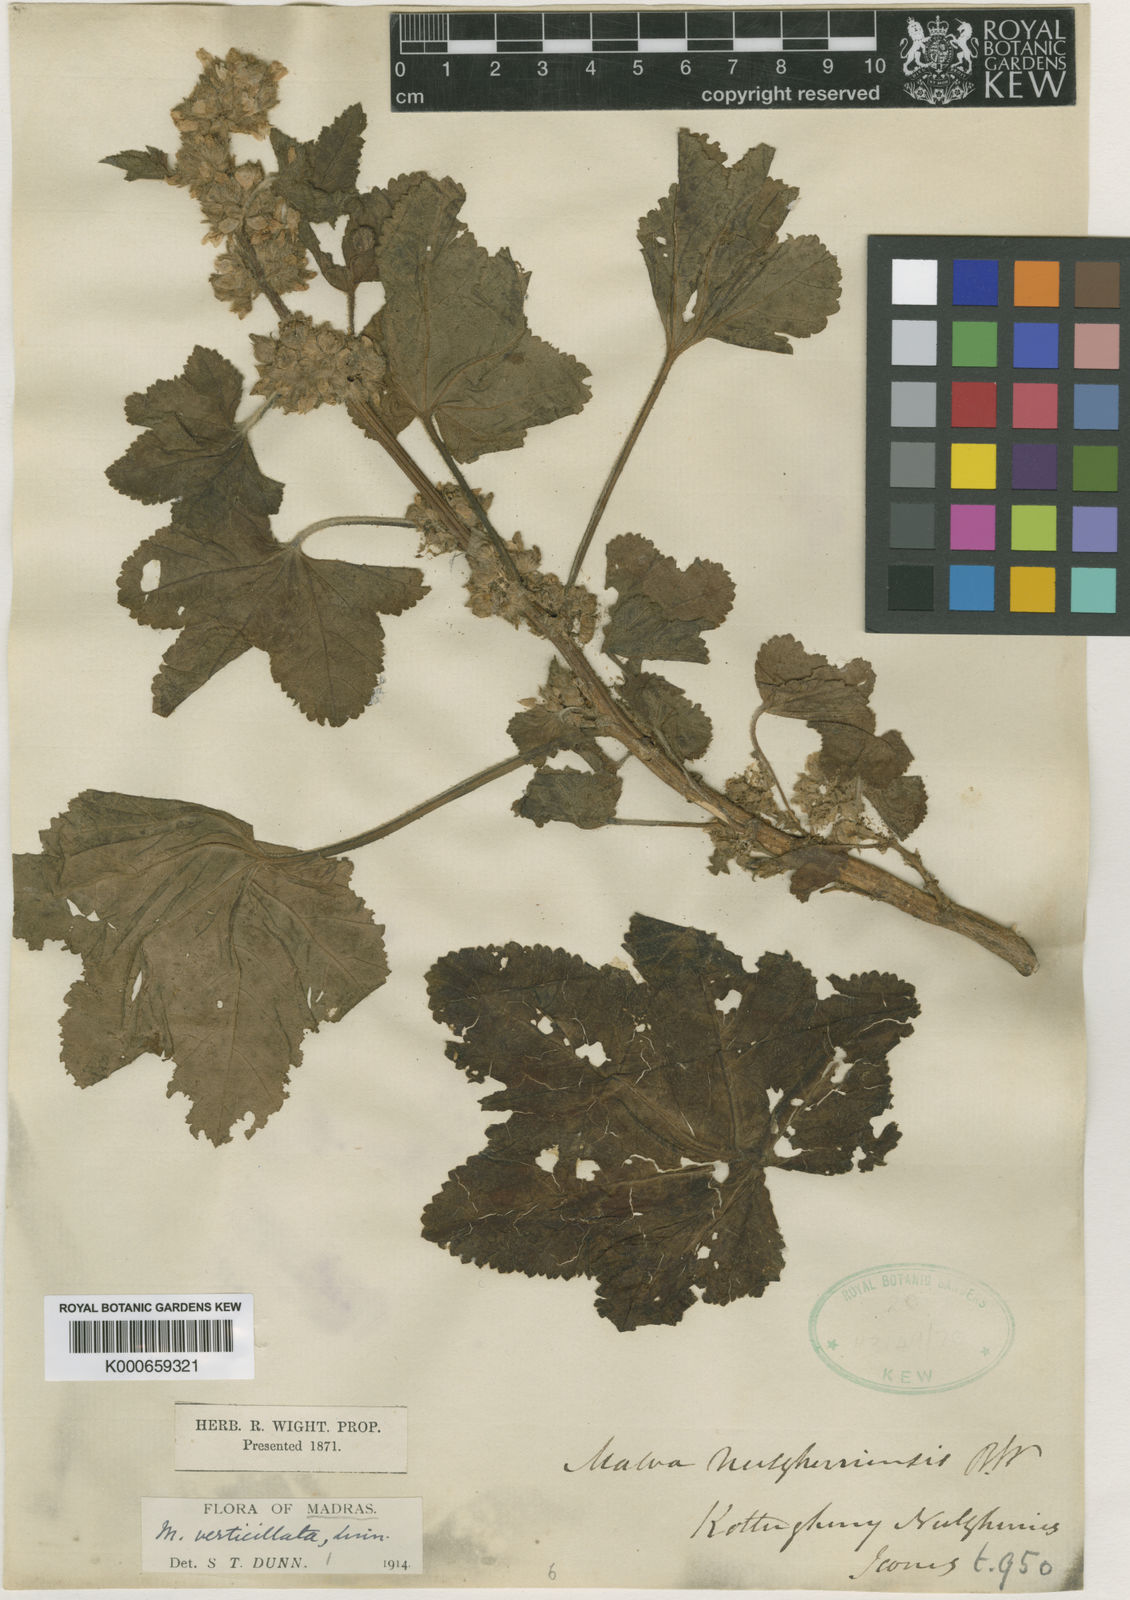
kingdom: Plantae
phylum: Tracheophyta
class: Magnoliopsida
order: Malvales
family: Malvaceae
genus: Malva
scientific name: Malva verticillata
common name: Chinese mallow
